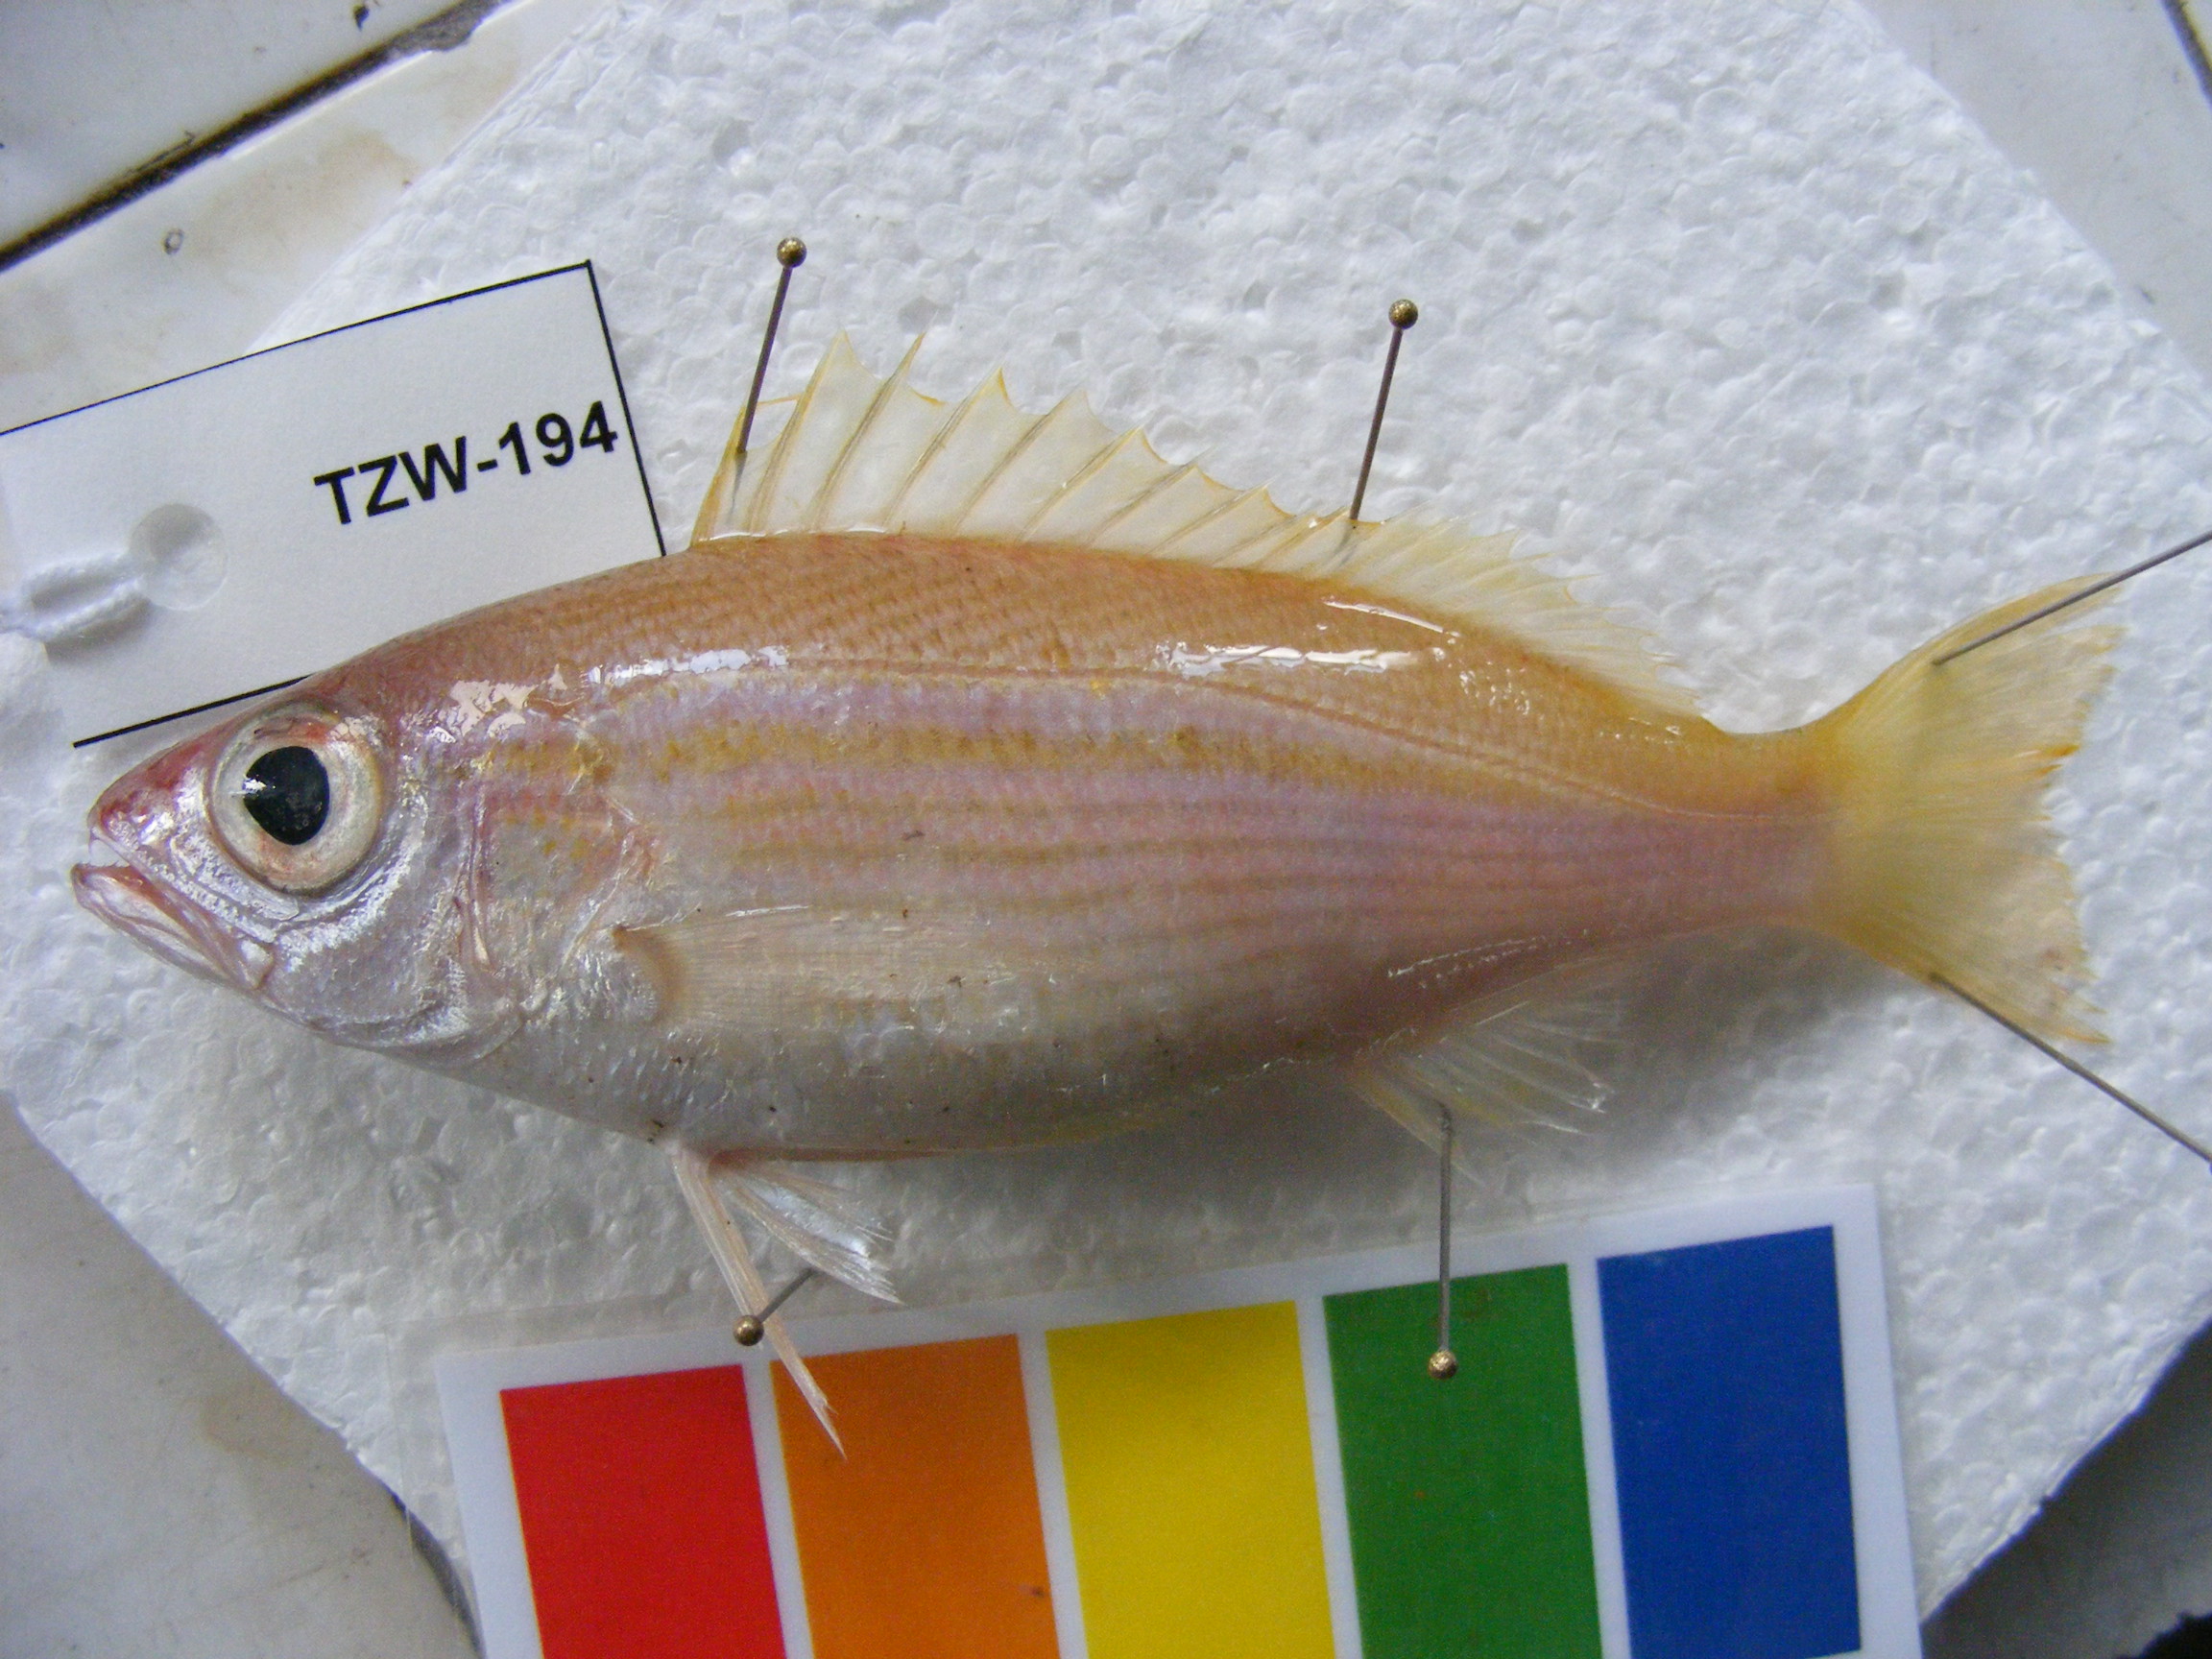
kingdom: Animalia
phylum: Chordata
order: Perciformes
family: Lutjanidae
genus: Lutjanus
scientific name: Lutjanus lutjanus
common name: Bigeye snapper
